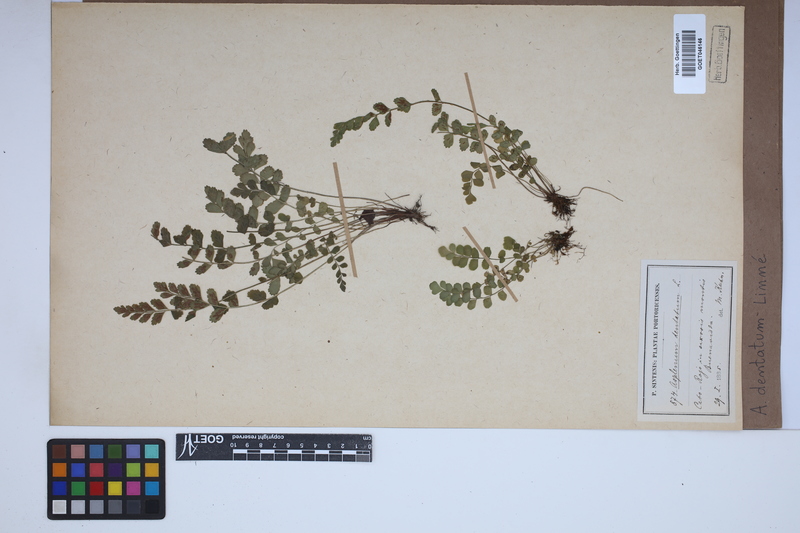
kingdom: Plantae
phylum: Tracheophyta
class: Polypodiopsida
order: Polypodiales
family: Aspleniaceae
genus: Asplenium
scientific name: Asplenium dentatum
